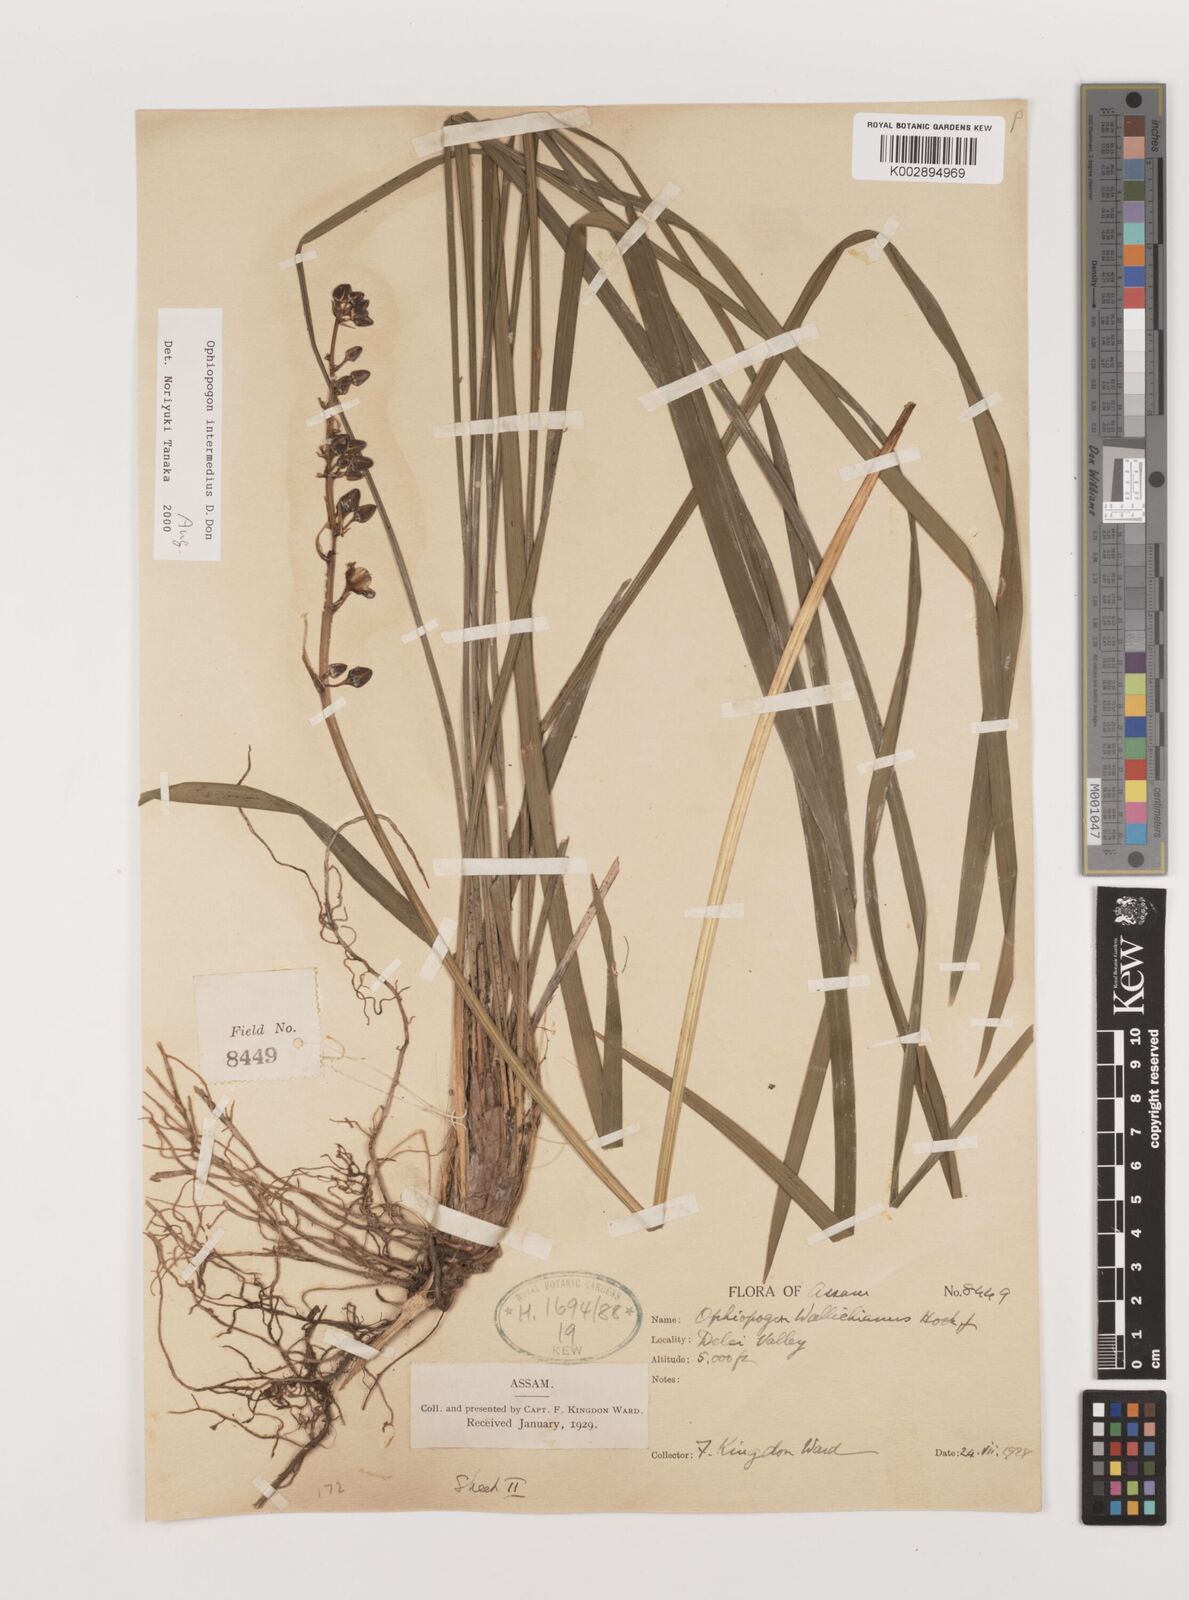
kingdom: Plantae
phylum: Tracheophyta
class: Liliopsida
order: Asparagales
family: Asparagaceae
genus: Ophiopogon
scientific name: Ophiopogon intermedius
